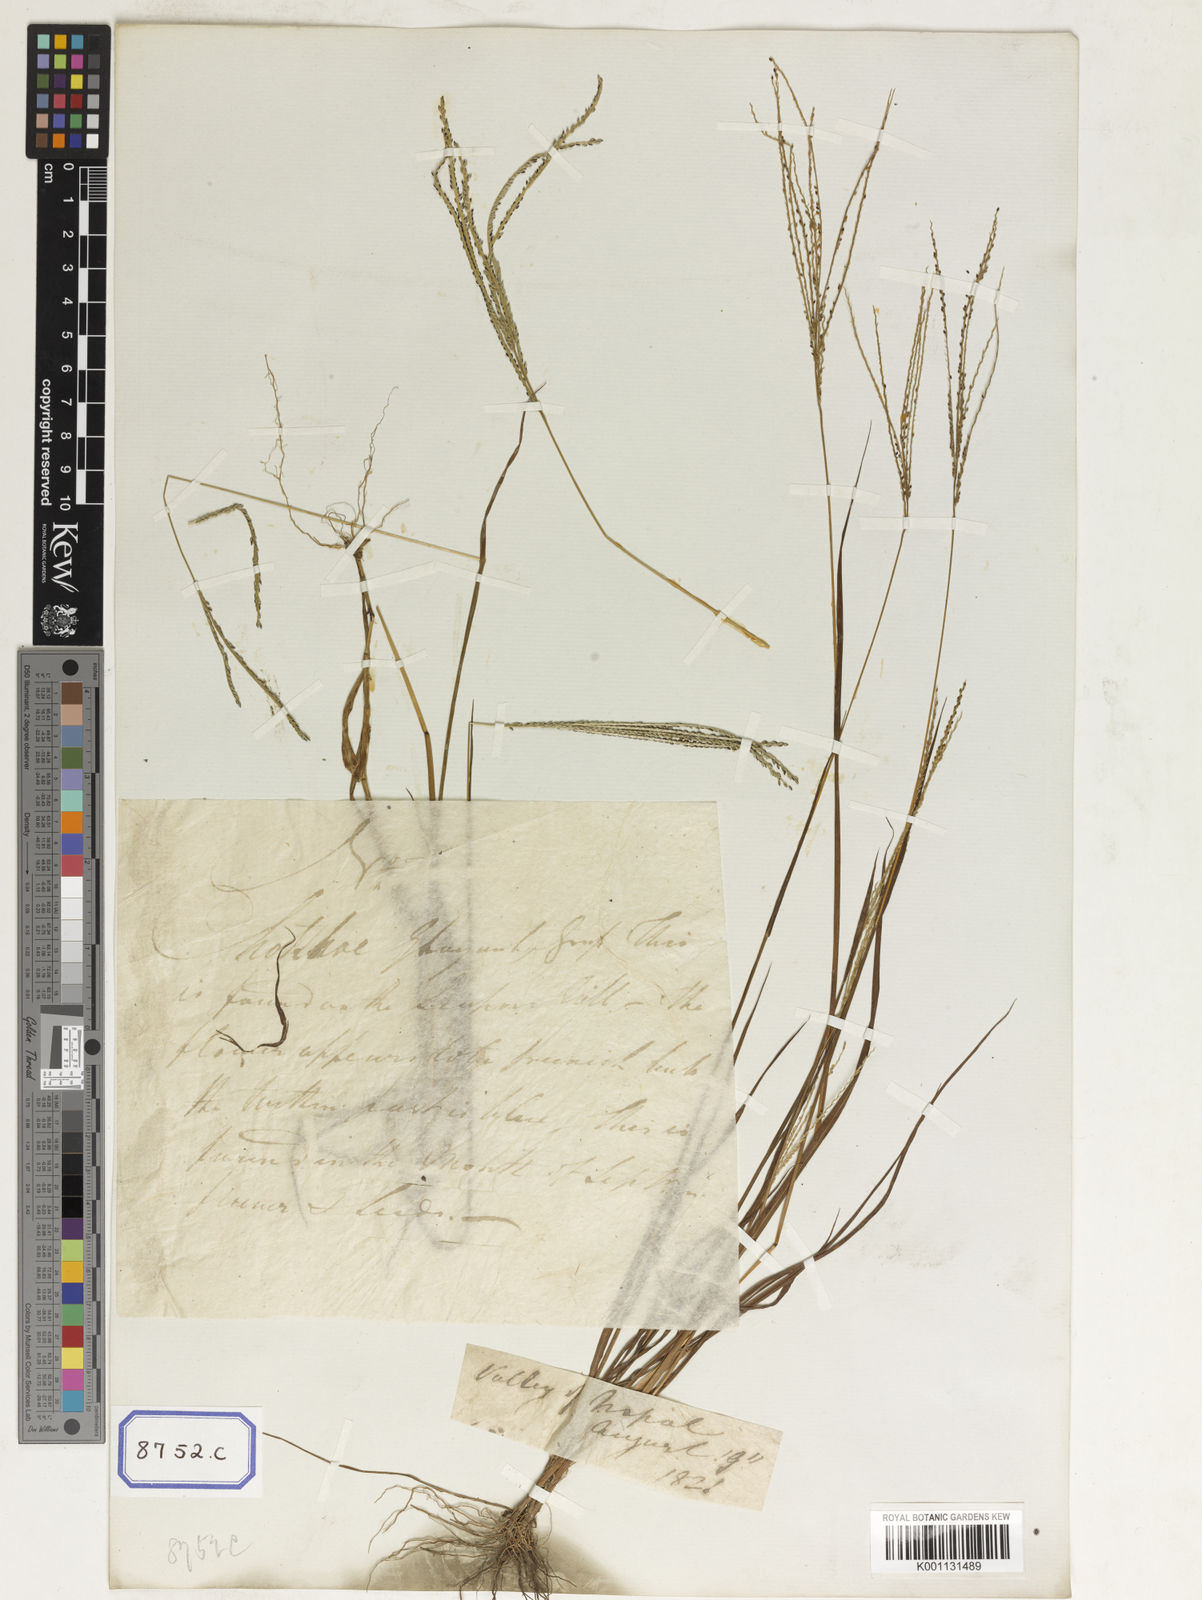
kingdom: Plantae
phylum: Tracheophyta
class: Liliopsida
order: Poales
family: Poaceae
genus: Paspalum
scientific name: Paspalum
